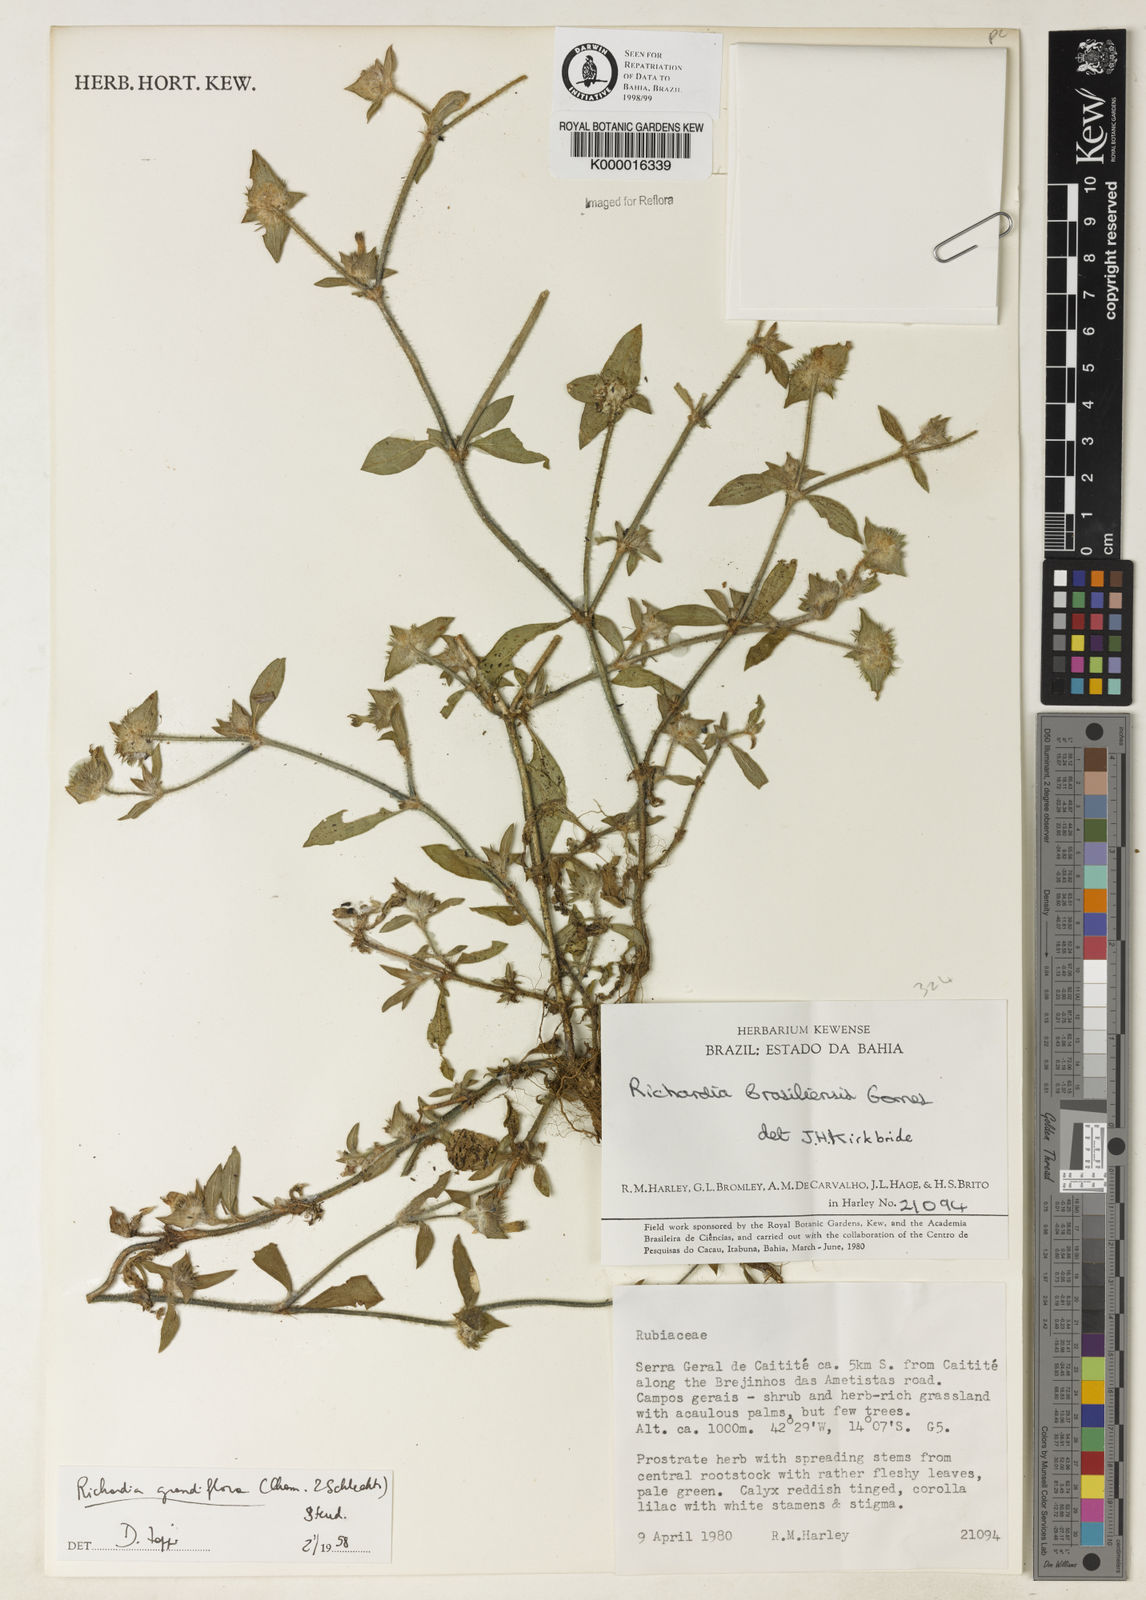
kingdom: Plantae
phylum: Tracheophyta
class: Magnoliopsida
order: Gentianales
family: Rubiaceae
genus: Richardia
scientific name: Richardia grandiflora
